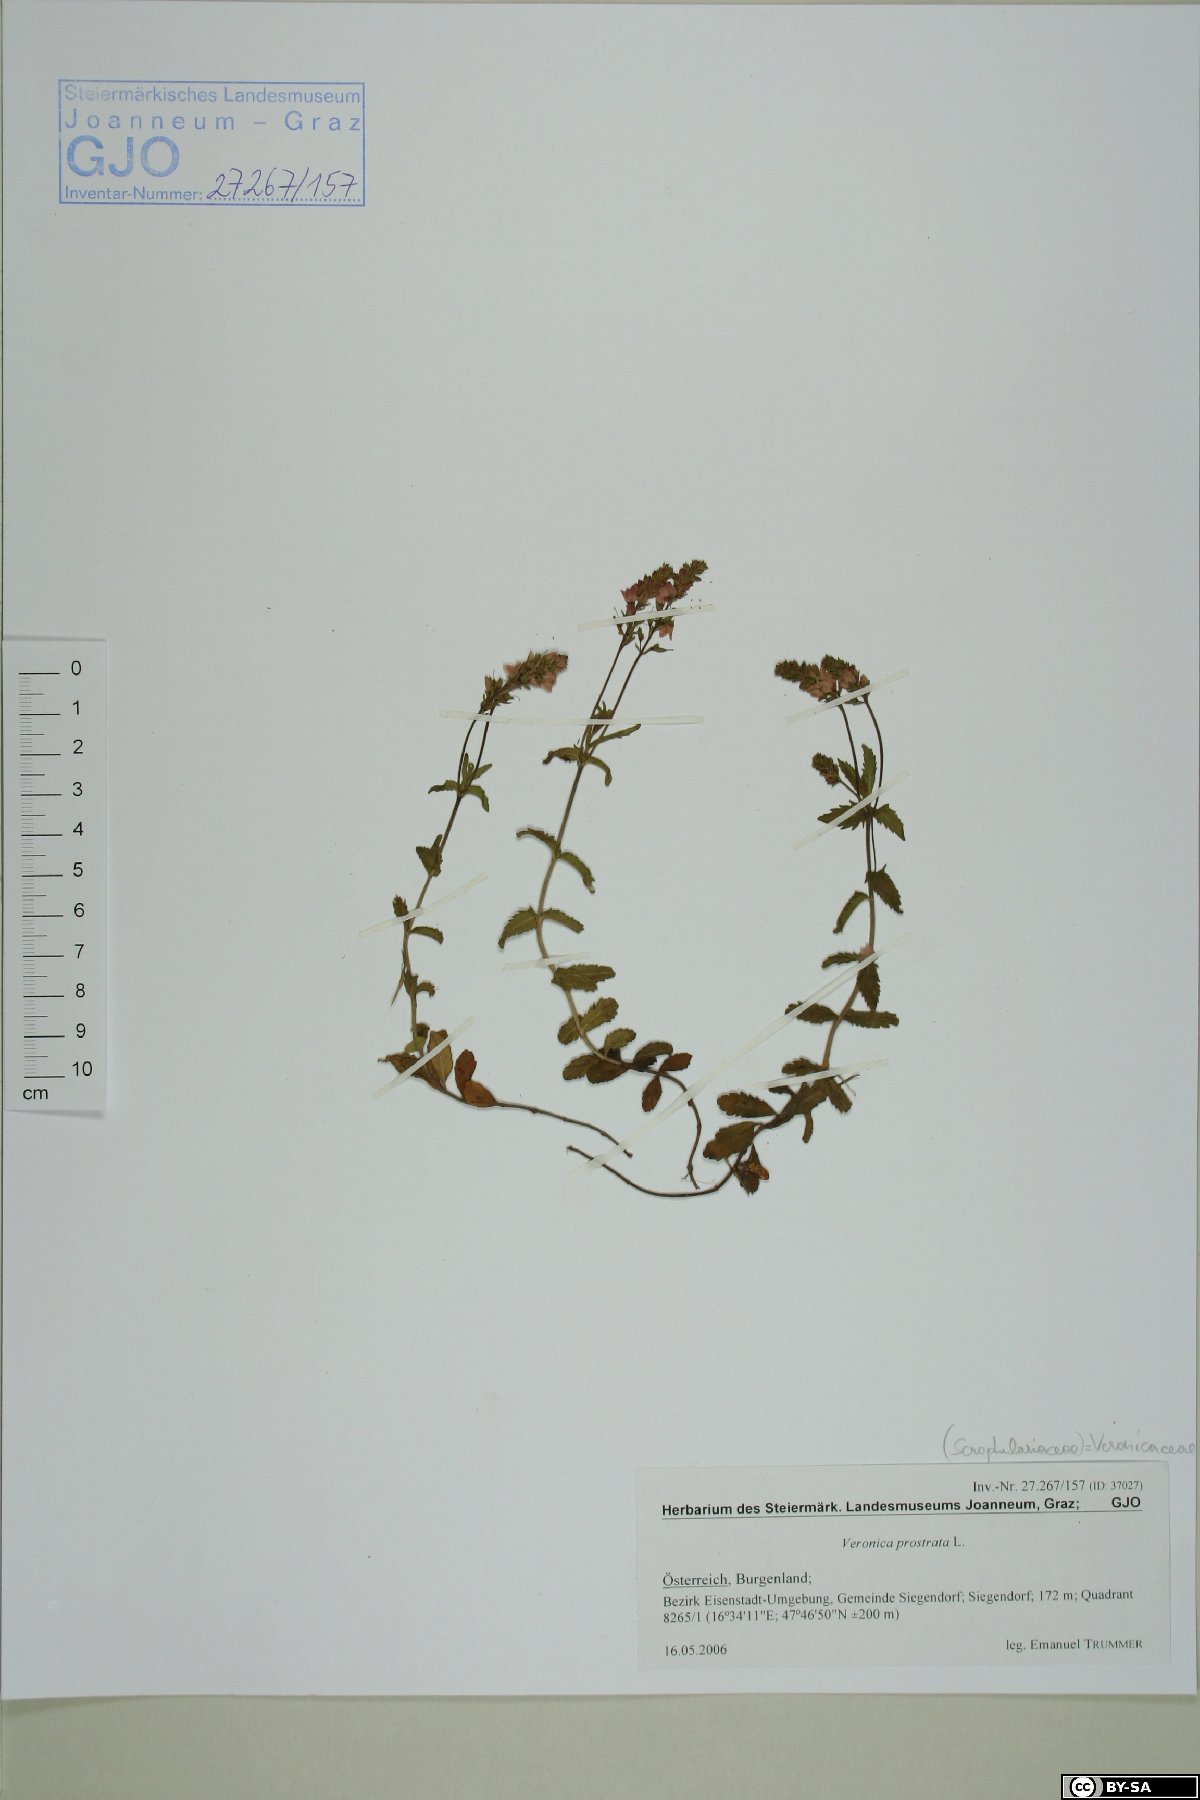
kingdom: Plantae
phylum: Tracheophyta
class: Magnoliopsida
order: Lamiales
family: Plantaginaceae
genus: Veronica
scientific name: Veronica prostrata
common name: Prostrate speedwell
